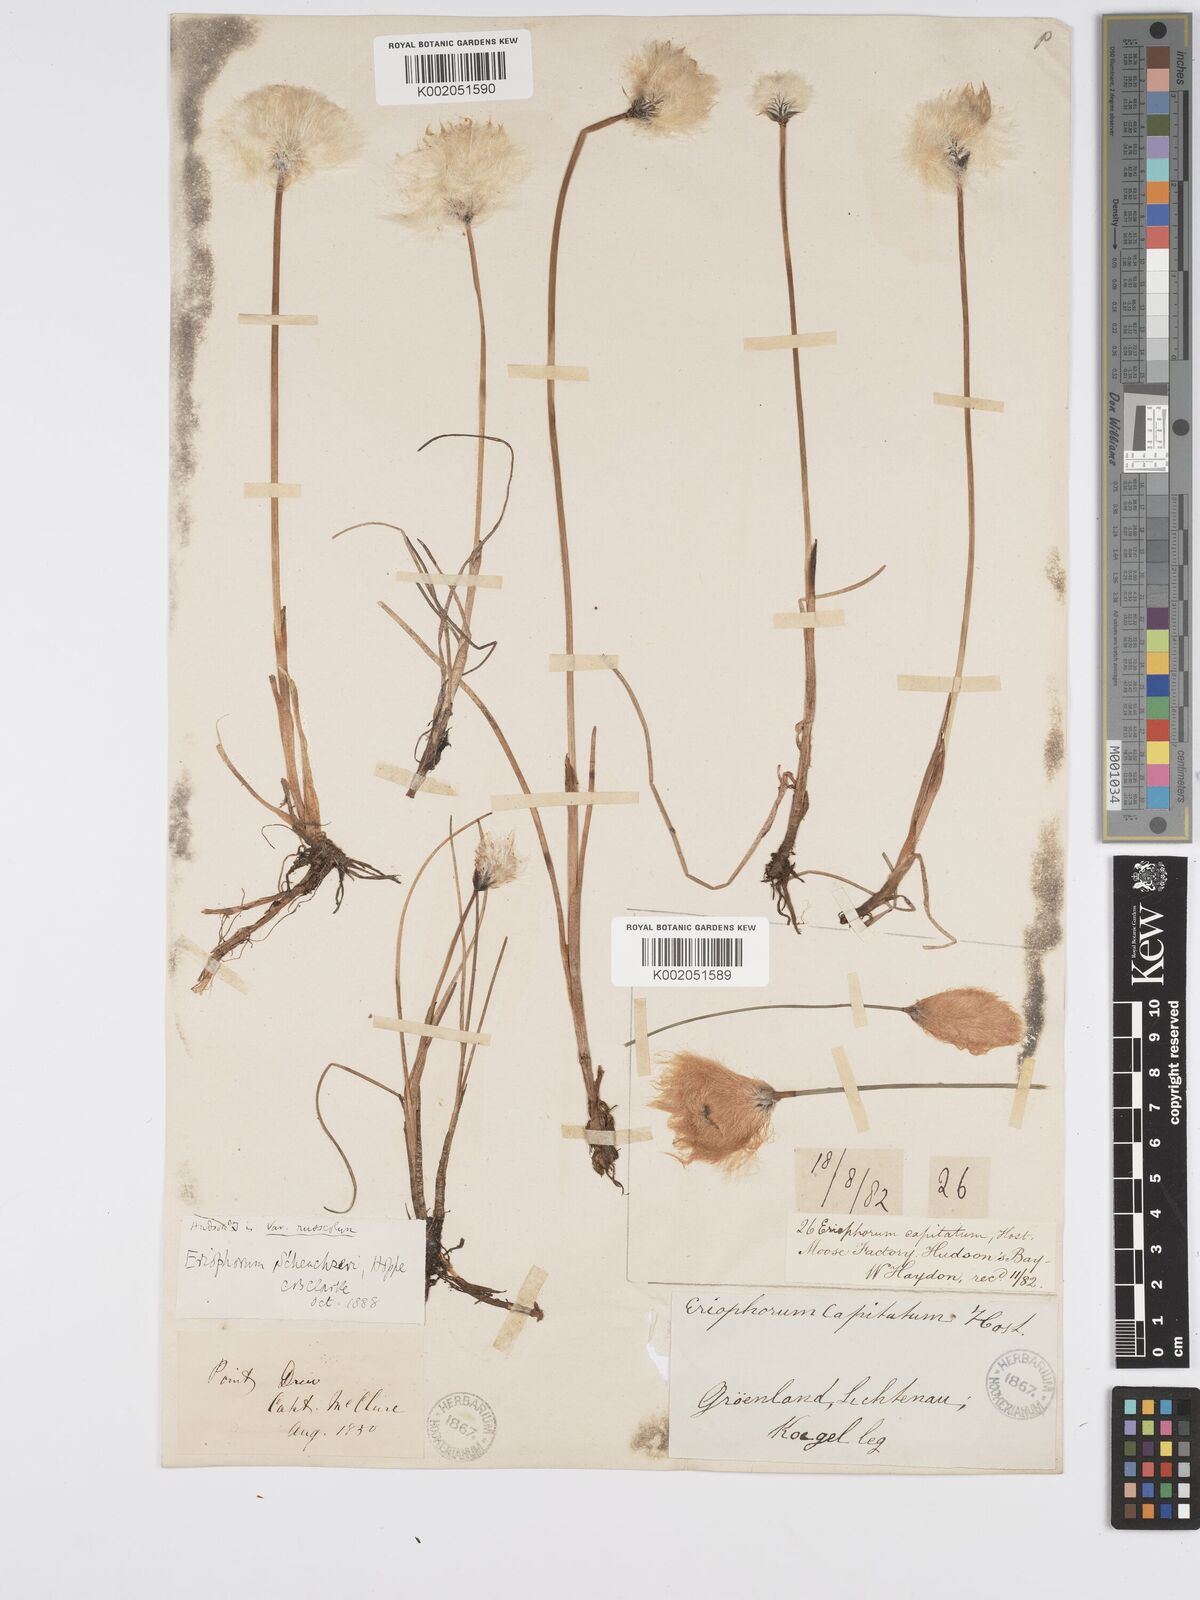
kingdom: Plantae
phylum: Tracheophyta
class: Liliopsida
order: Poales
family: Cyperaceae
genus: Eriophorum
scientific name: Eriophorum scheuchzeri
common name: Scheuchzer's cottongrass
